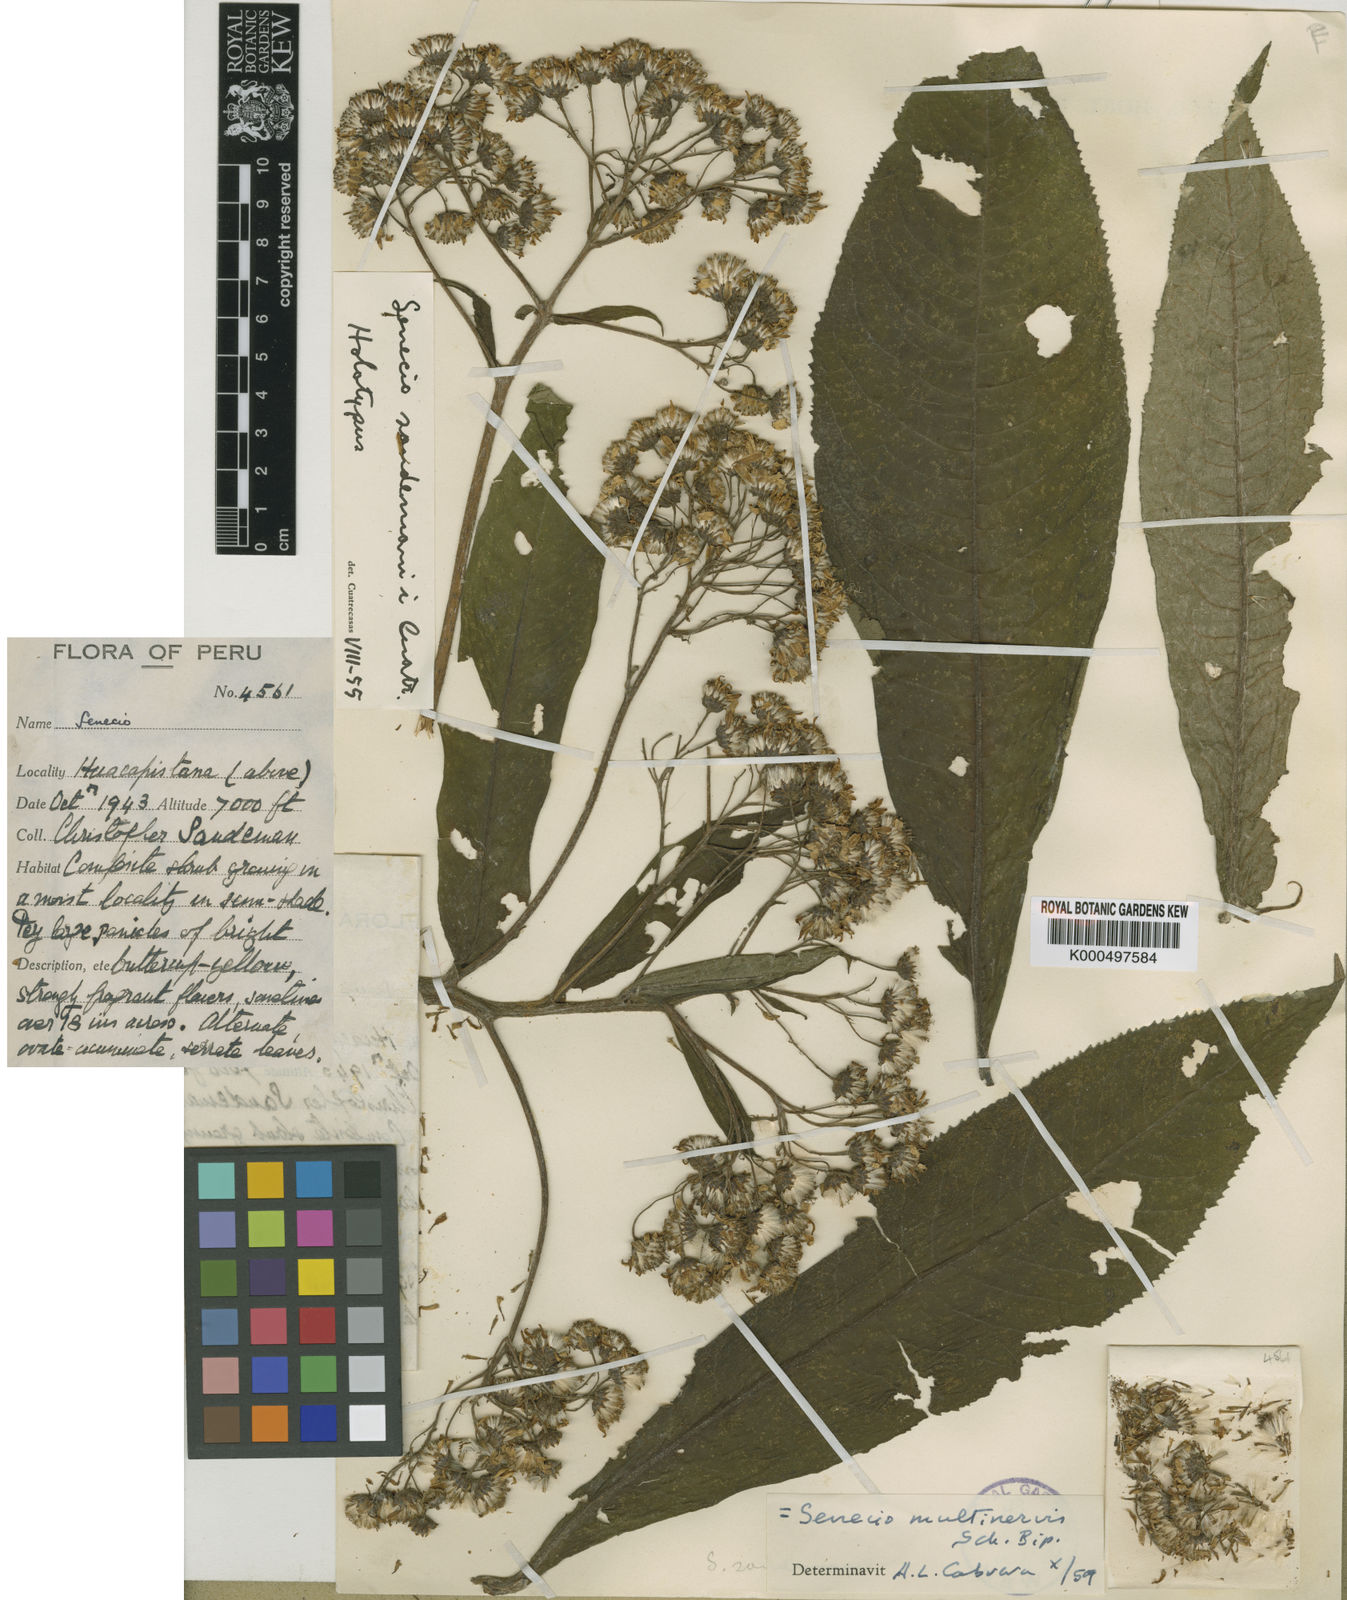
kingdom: Plantae
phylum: Tracheophyta
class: Magnoliopsida
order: Asterales
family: Asteraceae
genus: Dendrophorbium
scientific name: Dendrophorbium
